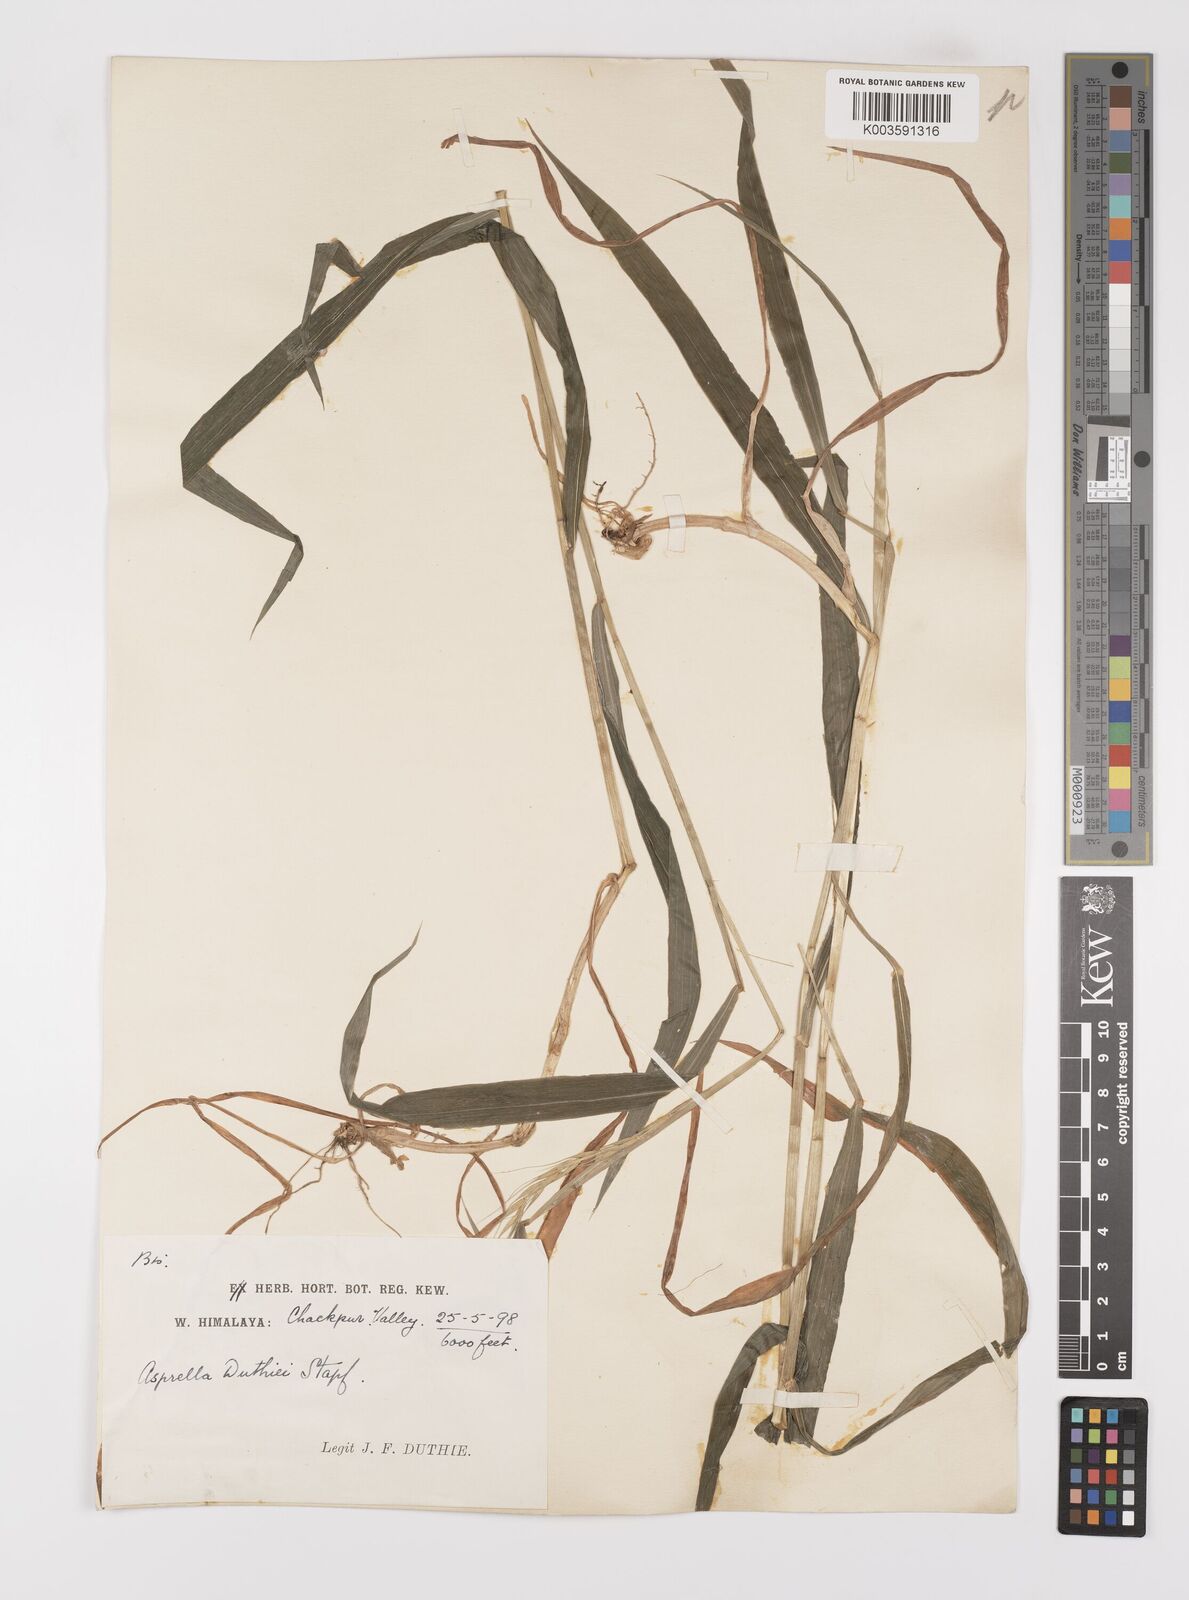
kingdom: Plantae
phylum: Tracheophyta
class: Liliopsida
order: Poales
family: Poaceae
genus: Leymus
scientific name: Leymus duthiei
